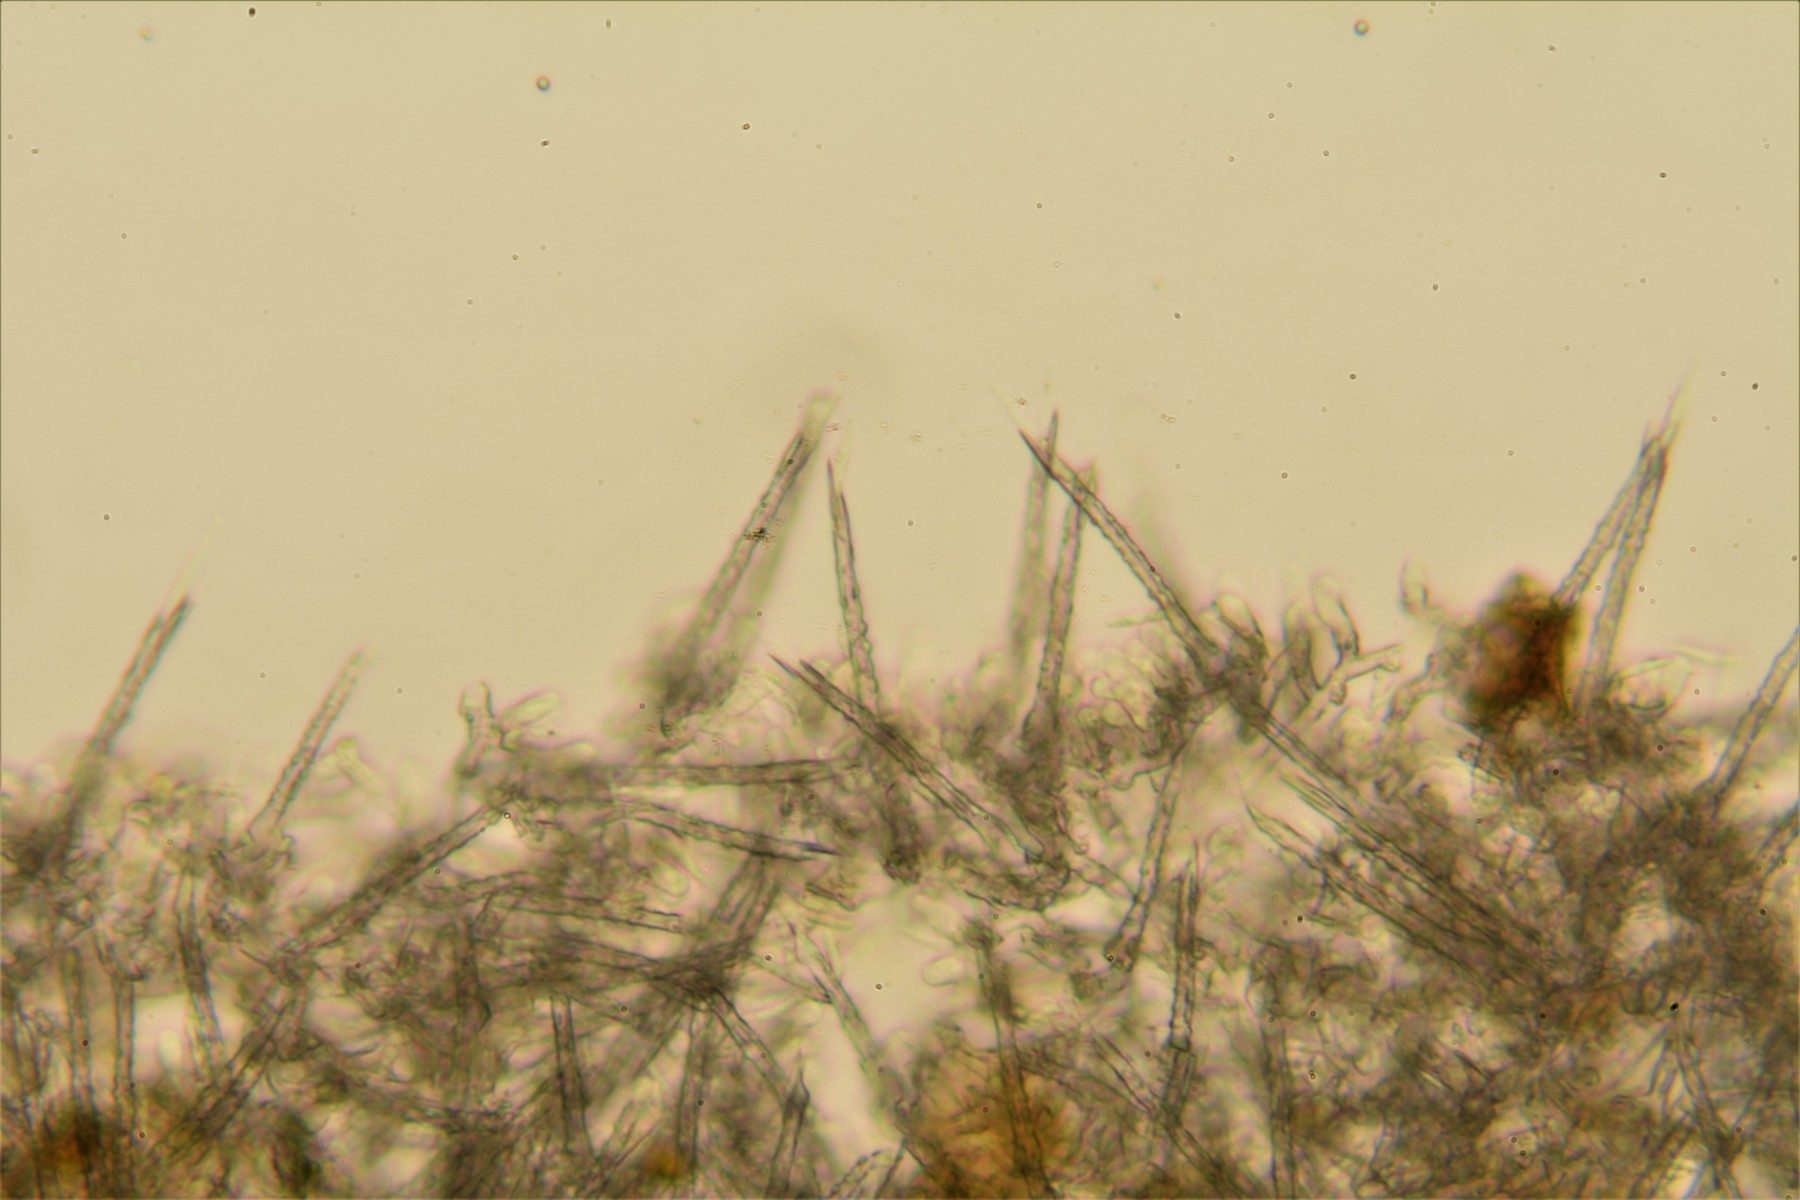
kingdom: Fungi
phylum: Basidiomycota
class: Agaricomycetes
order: Trechisporales
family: Hydnodontaceae
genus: Subulicystidium
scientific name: Subulicystidium longisporum
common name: almindelig pigtrådshinde
